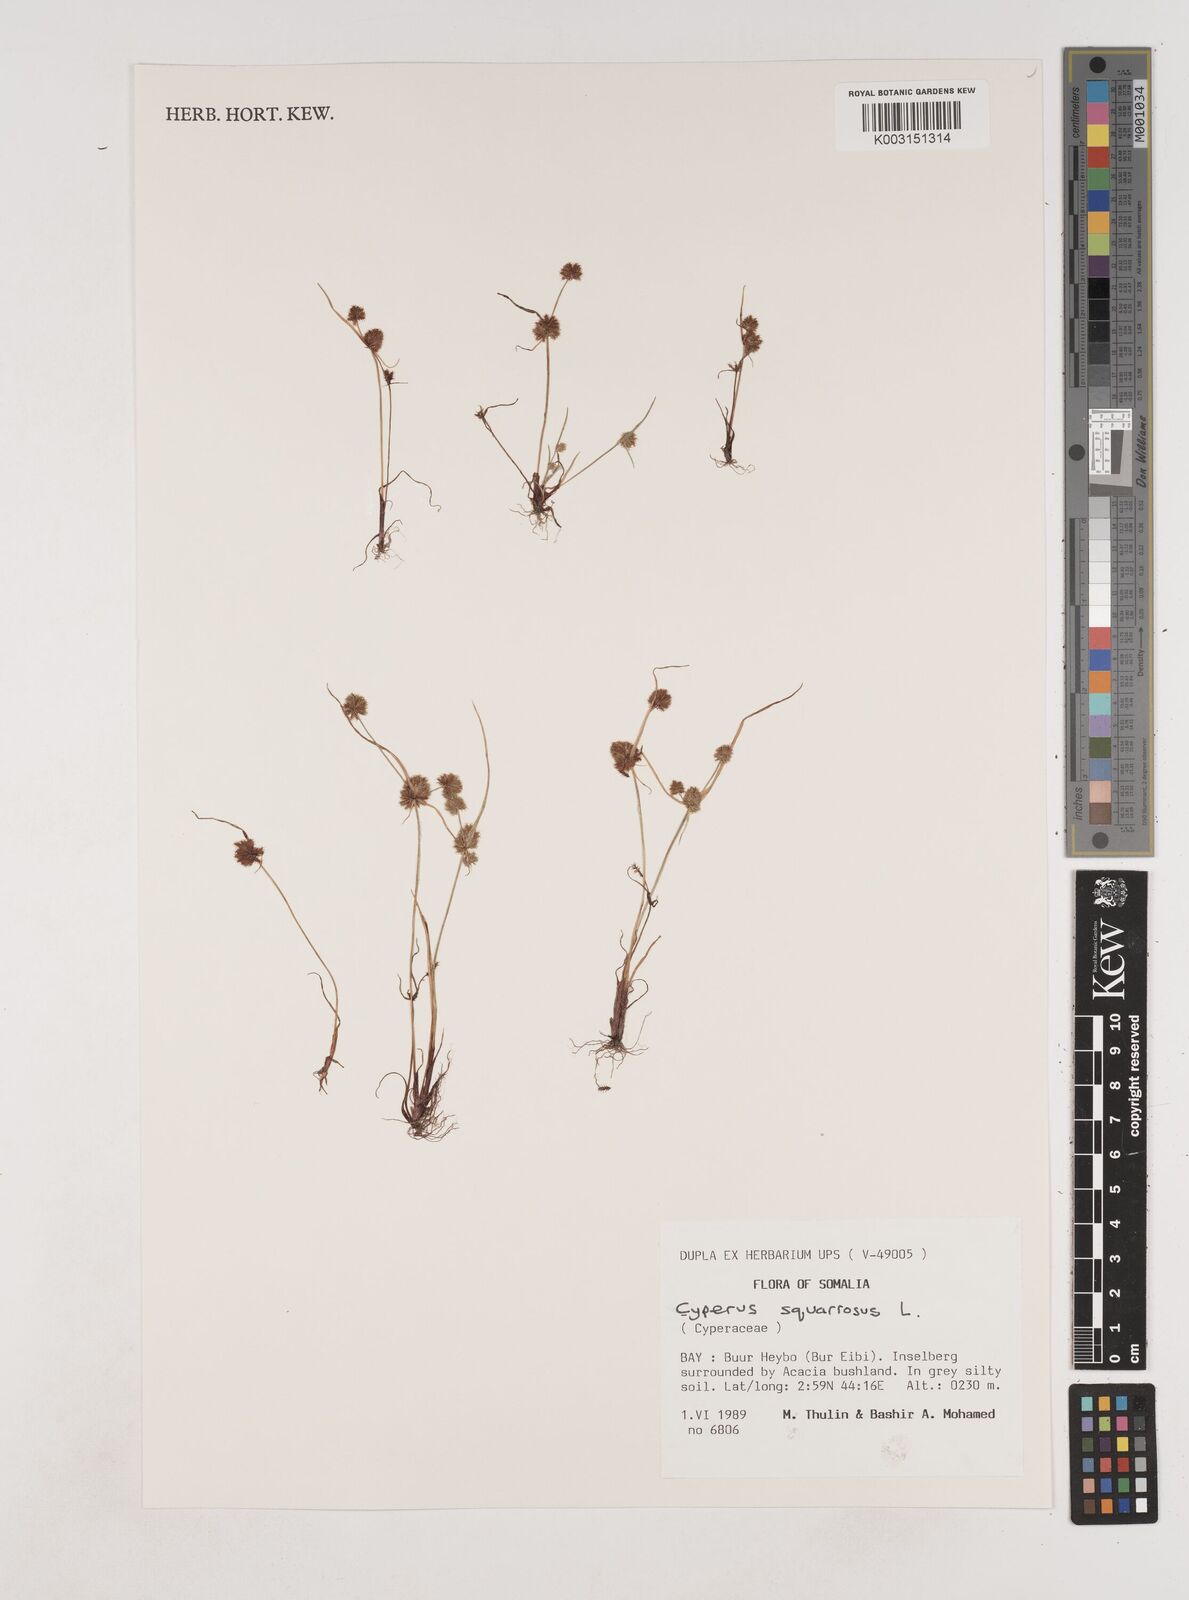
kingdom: Plantae
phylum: Tracheophyta
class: Liliopsida
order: Poales
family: Cyperaceae
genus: Cyperus
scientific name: Cyperus squarrosus
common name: Awned cyperus
